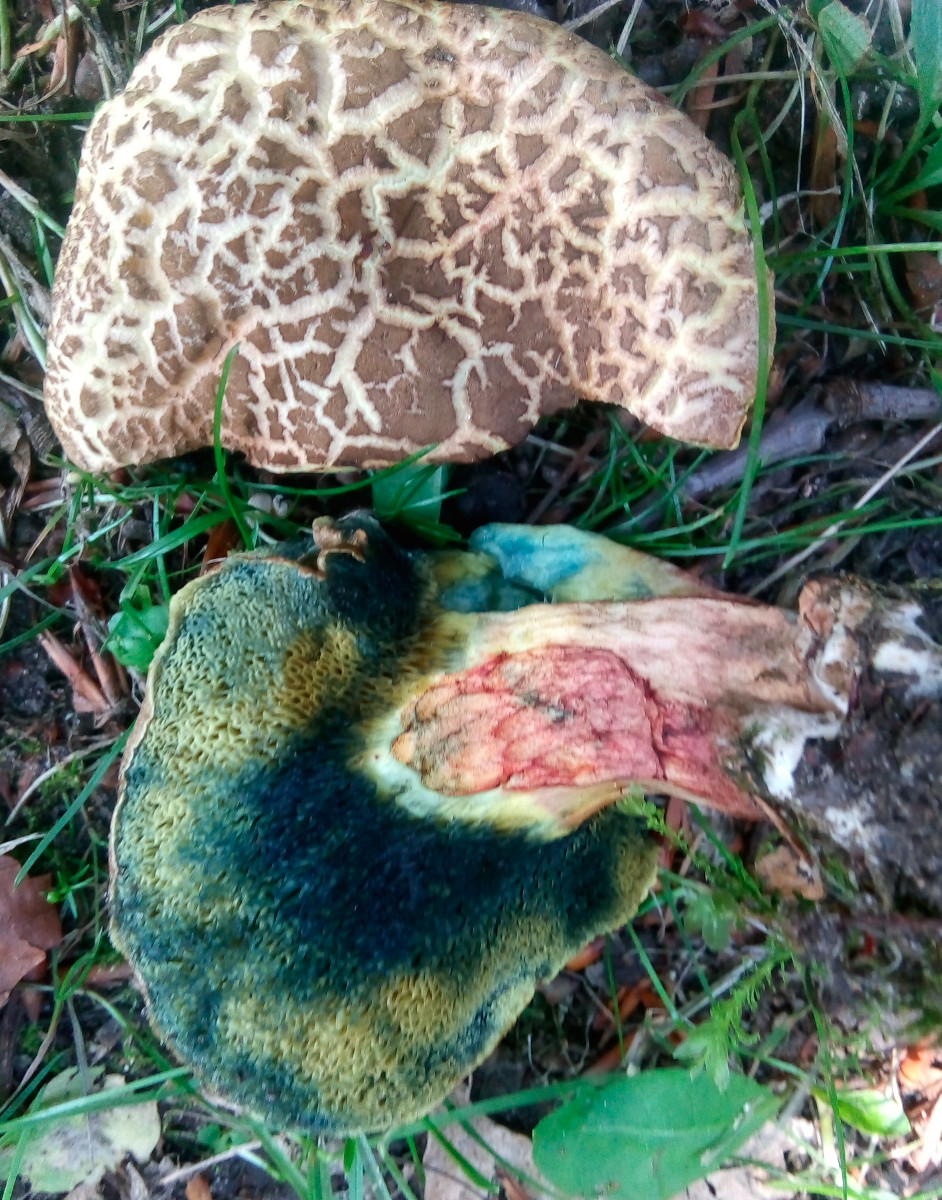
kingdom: Fungi
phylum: Basidiomycota
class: Agaricomycetes
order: Boletales
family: Boletaceae
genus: Xerocomellus
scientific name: Xerocomellus cisalpinus
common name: finsprukken rørhat
